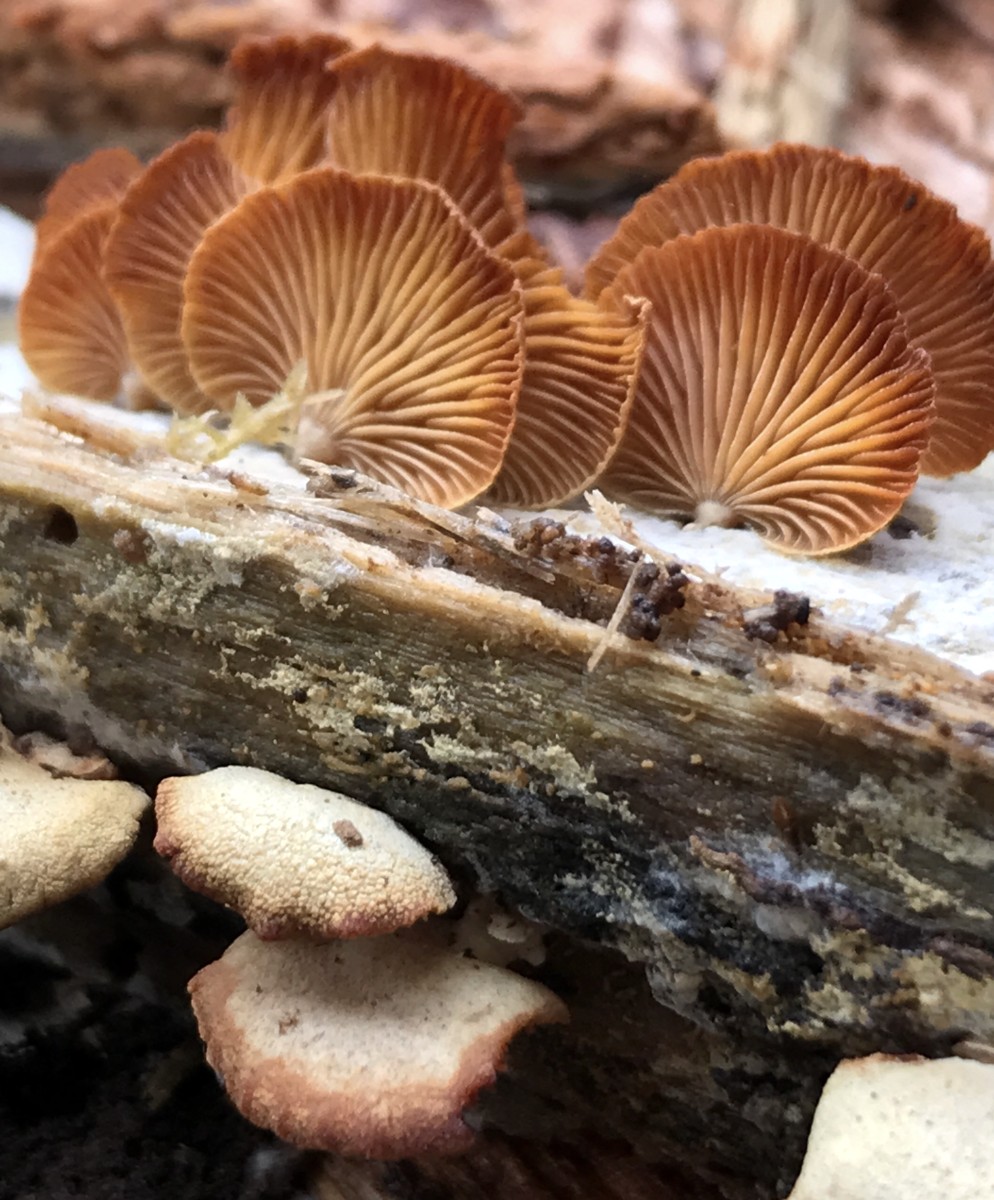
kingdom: Fungi
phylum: Basidiomycota
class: Agaricomycetes
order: Agaricales
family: Mycenaceae
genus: Panellus
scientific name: Panellus stipticus
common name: kliddet epaulethat
